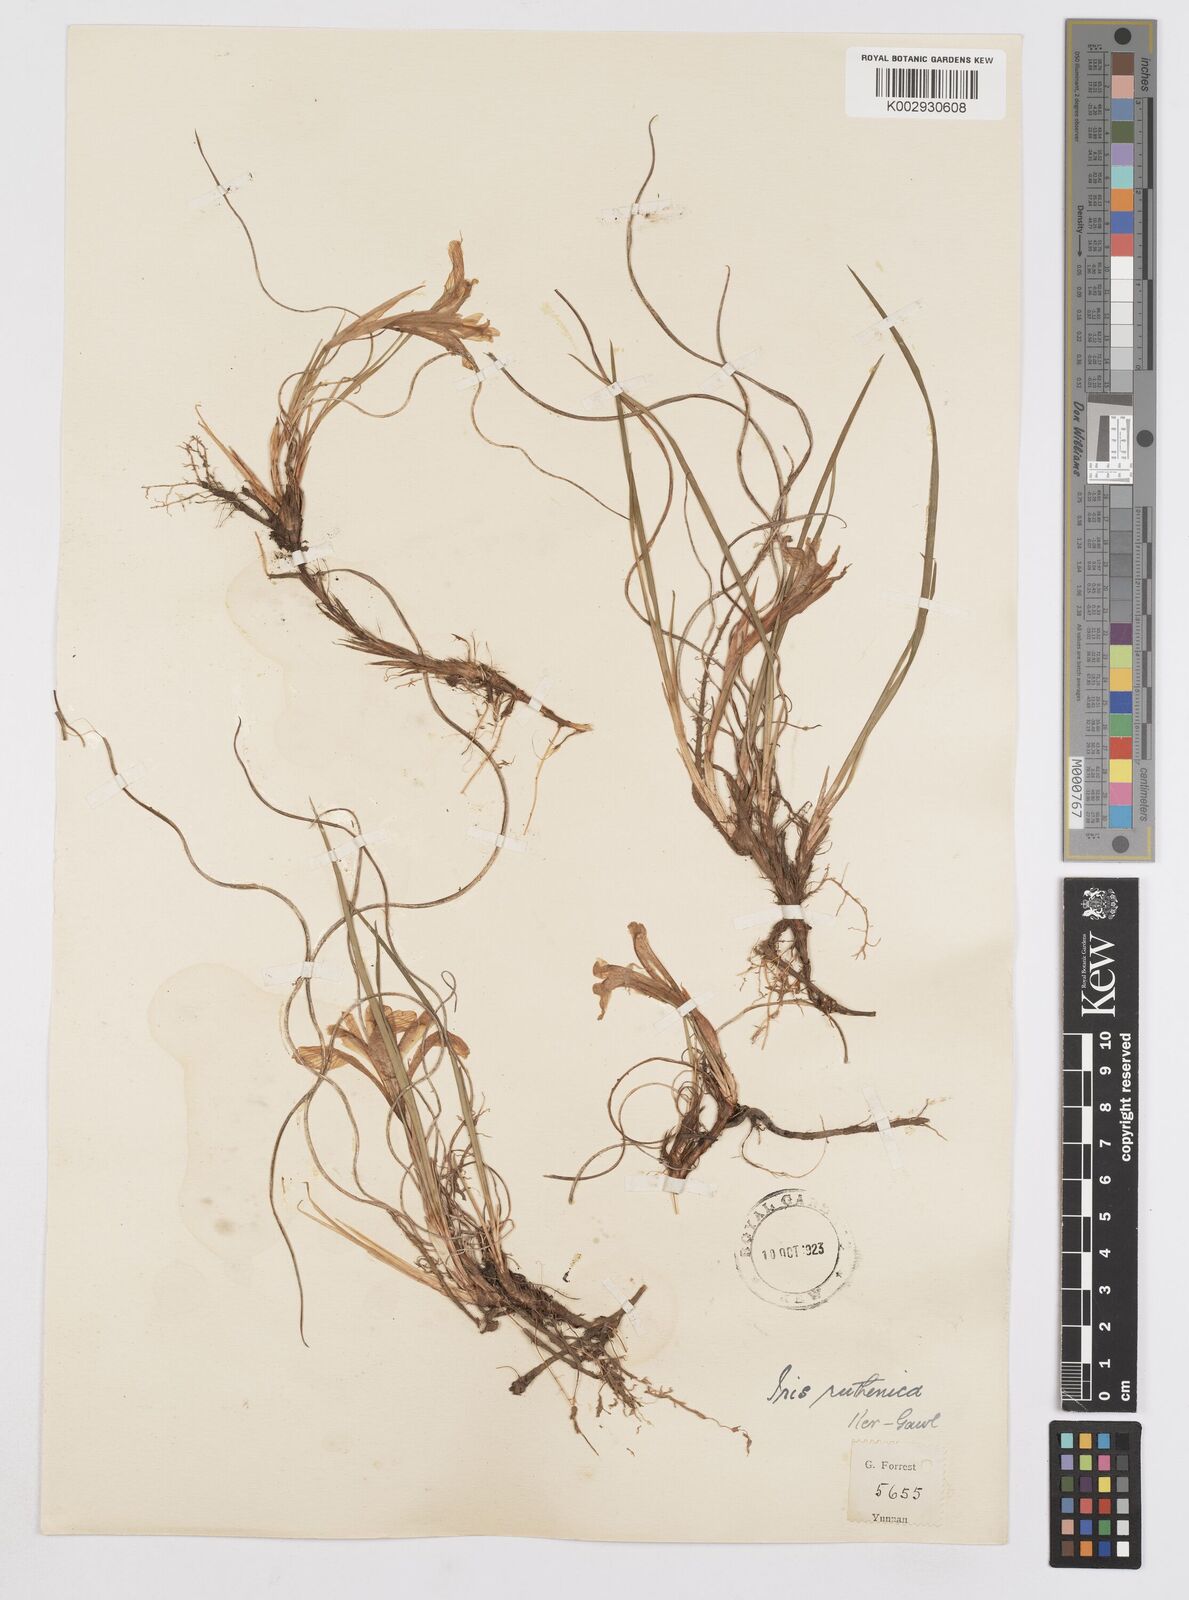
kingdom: Plantae
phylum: Tracheophyta
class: Liliopsida
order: Asparagales
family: Iridaceae
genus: Iris
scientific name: Iris ruthenica
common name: Purple-bract iris
